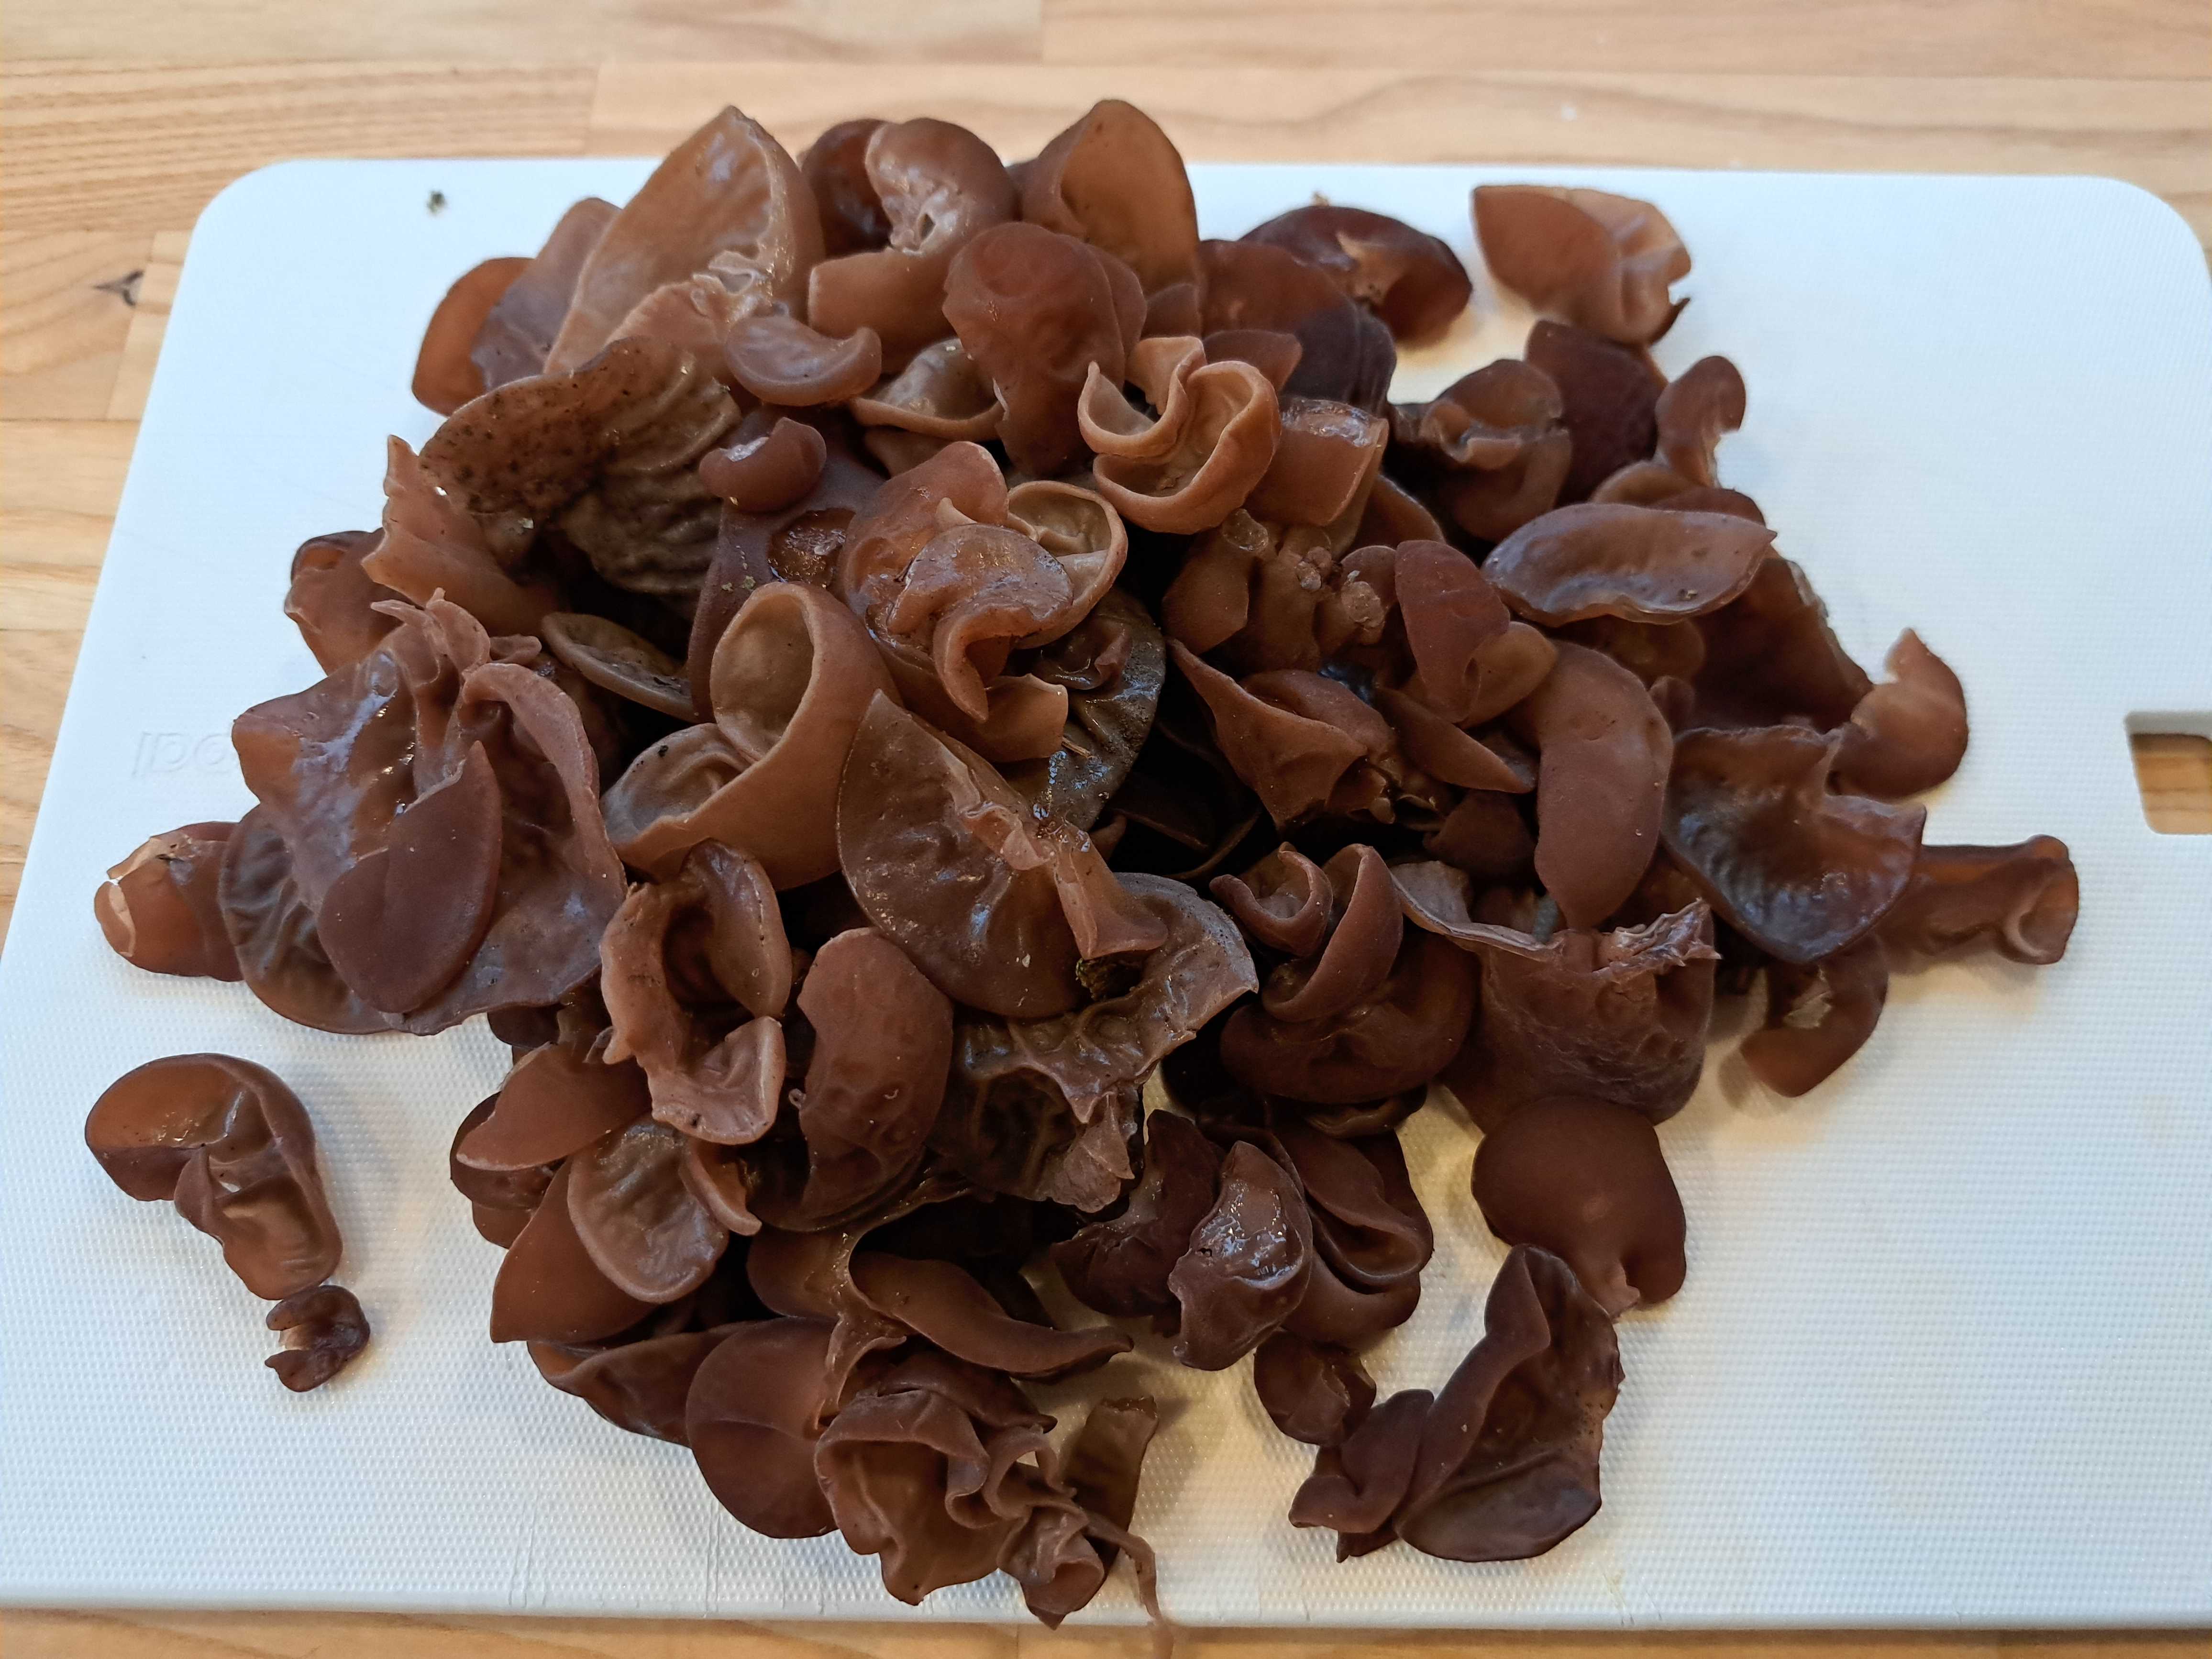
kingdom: Fungi
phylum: Basidiomycota
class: Agaricomycetes
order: Auriculariales
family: Auriculariaceae
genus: Auricularia
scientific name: Auricularia auricula-judae
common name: almindelig judasøre
